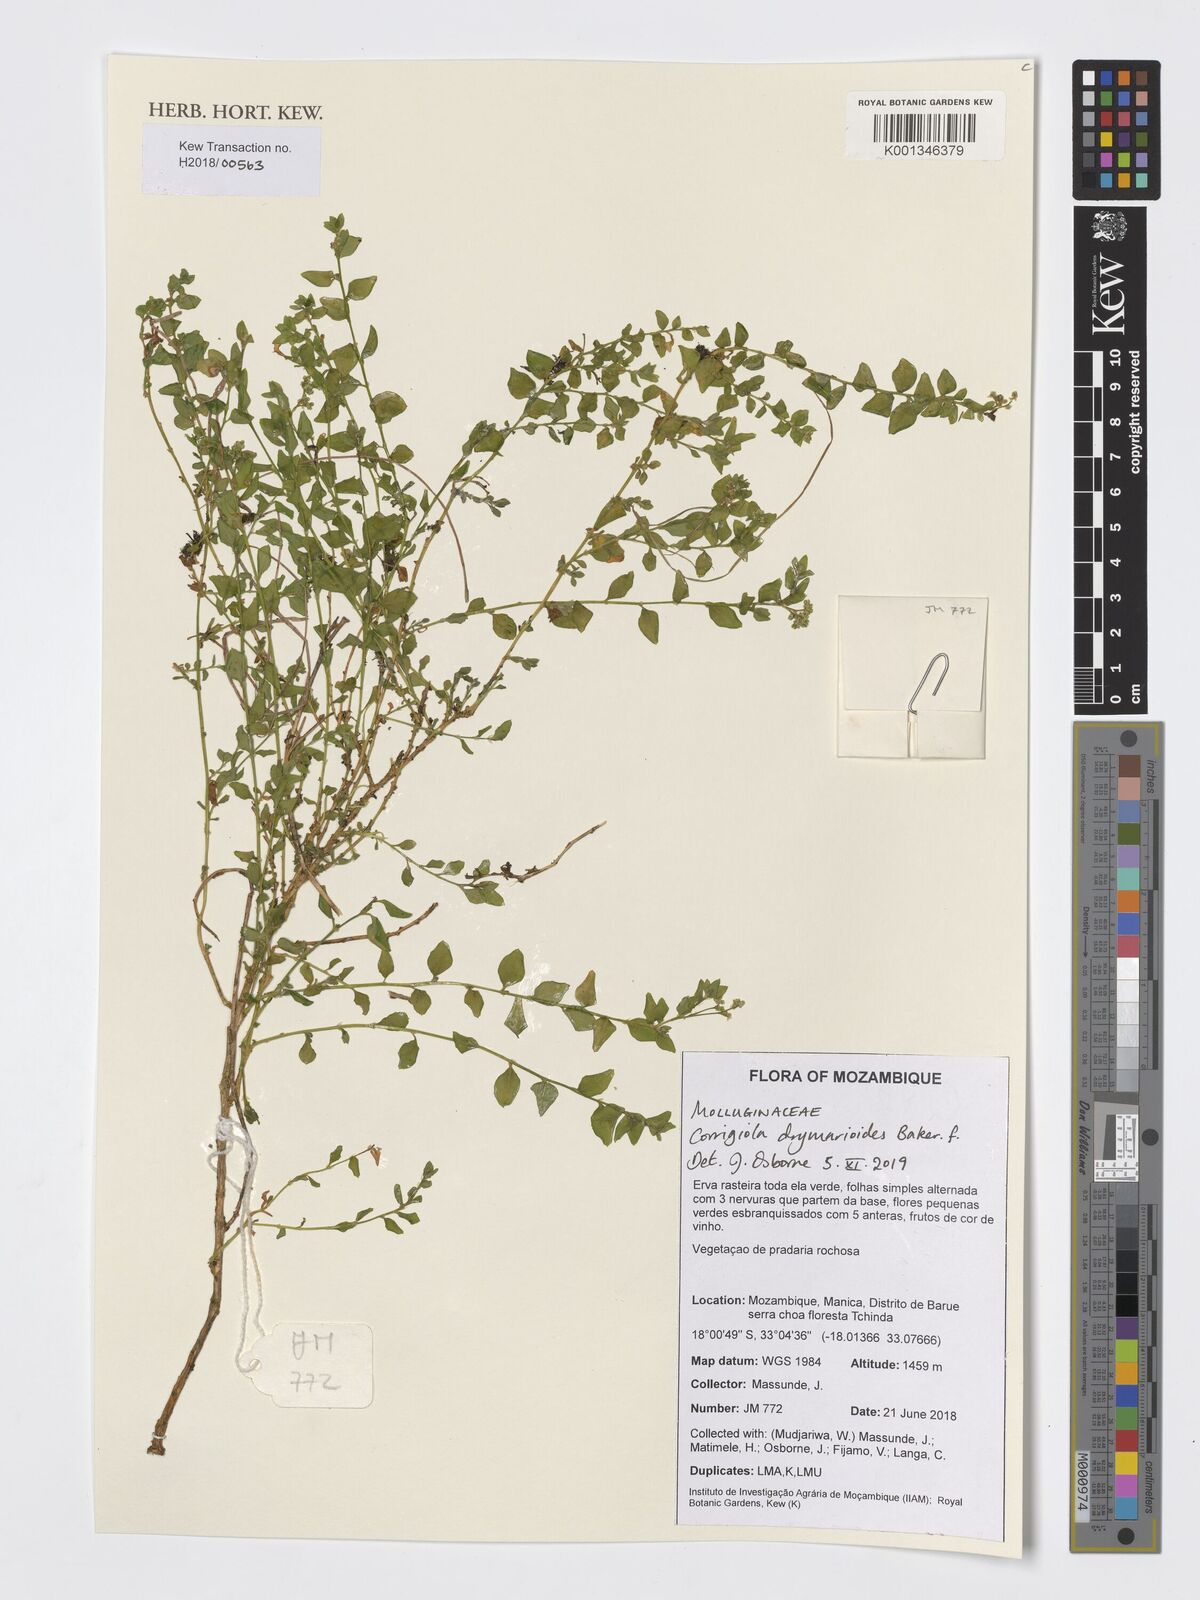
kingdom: Plantae
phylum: Tracheophyta
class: Magnoliopsida
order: Caryophyllales
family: Caryophyllaceae
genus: Corrigiola
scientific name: Corrigiola drymarioides
